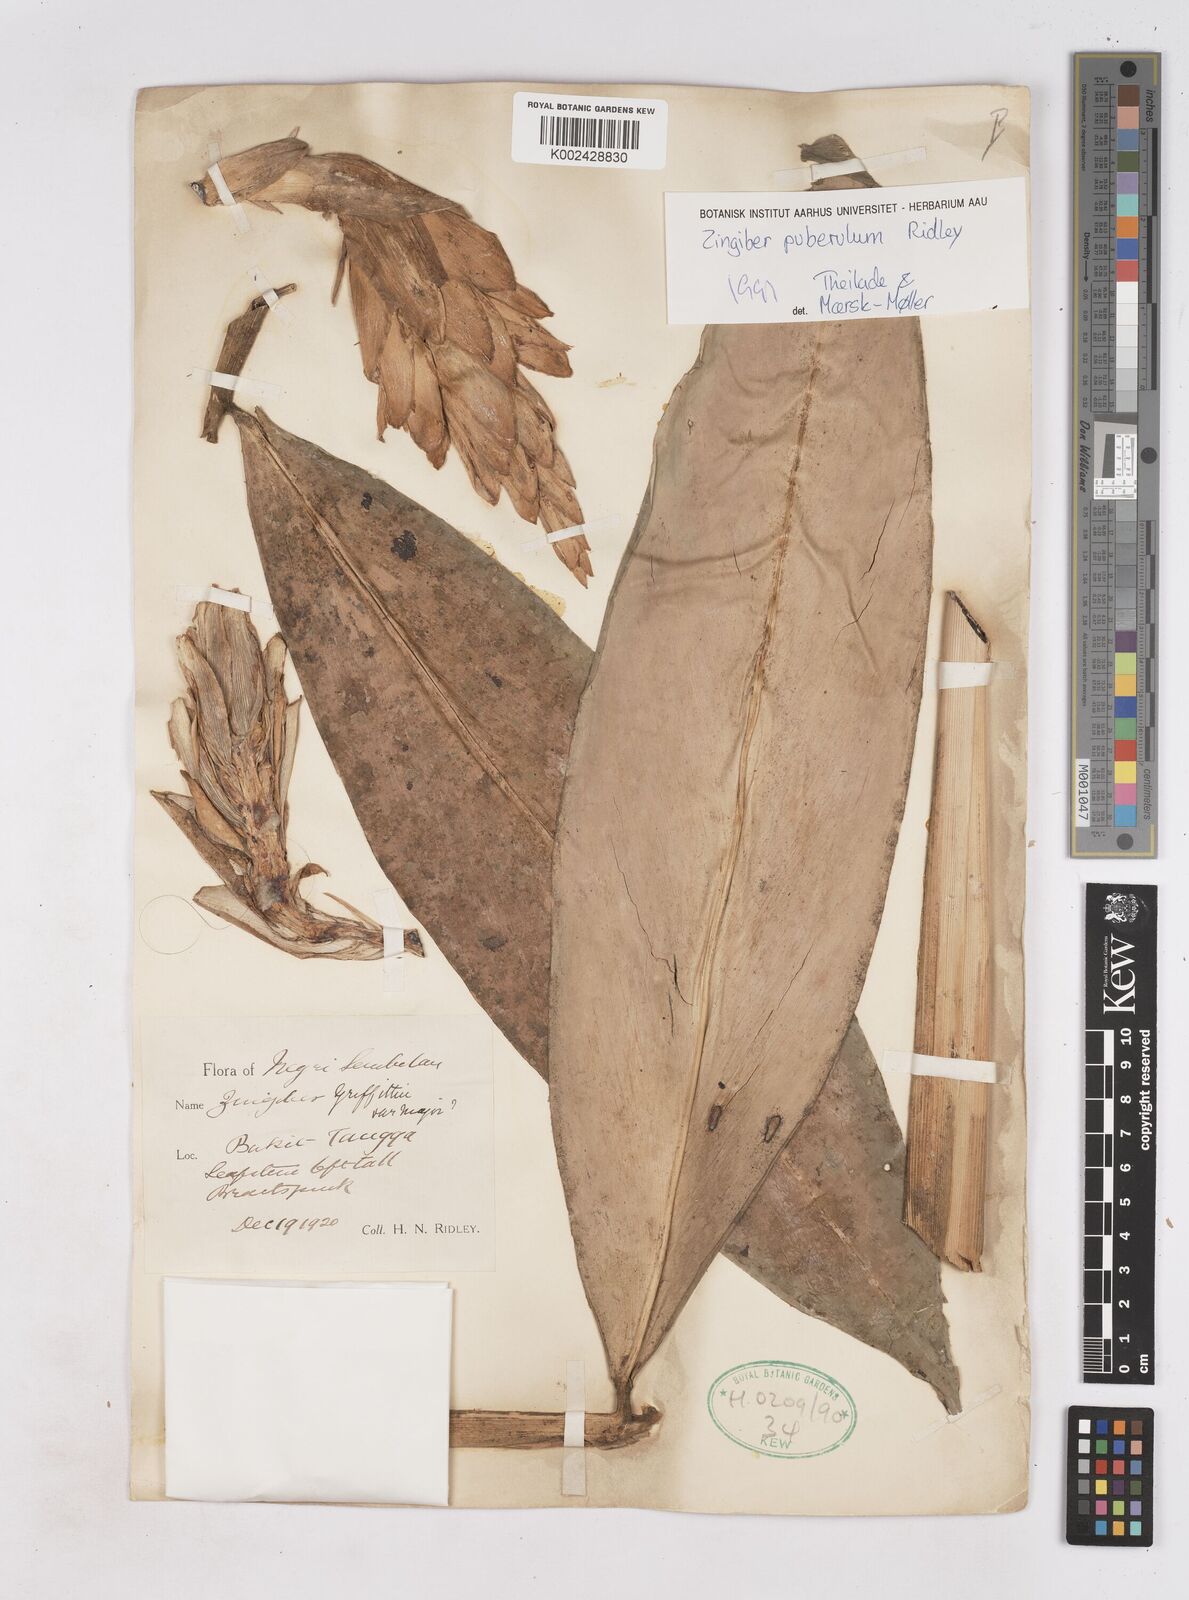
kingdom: Plantae
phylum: Tracheophyta
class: Liliopsida
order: Zingiberales
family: Zingiberaceae
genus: Zingiber
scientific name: Zingiber puberulum
